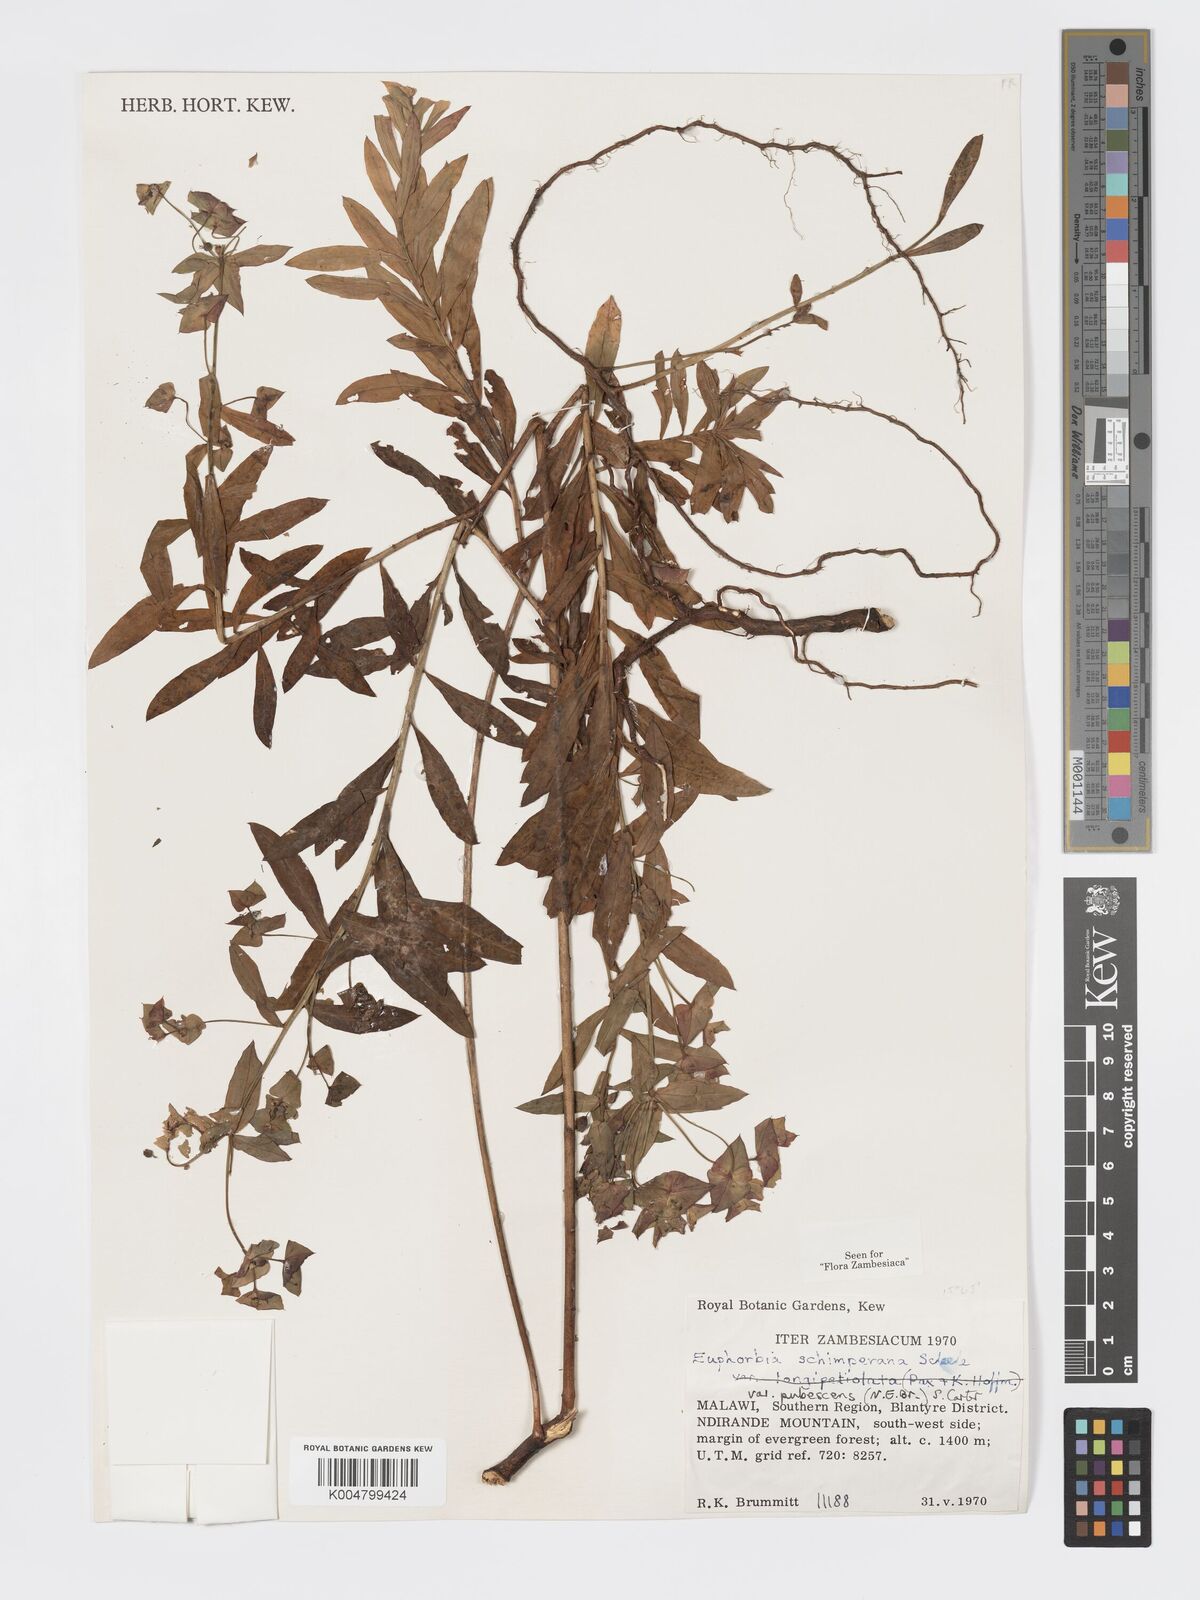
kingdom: Plantae
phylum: Tracheophyta
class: Magnoliopsida
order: Malpighiales
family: Euphorbiaceae
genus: Euphorbia
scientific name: Euphorbia schimperiana
